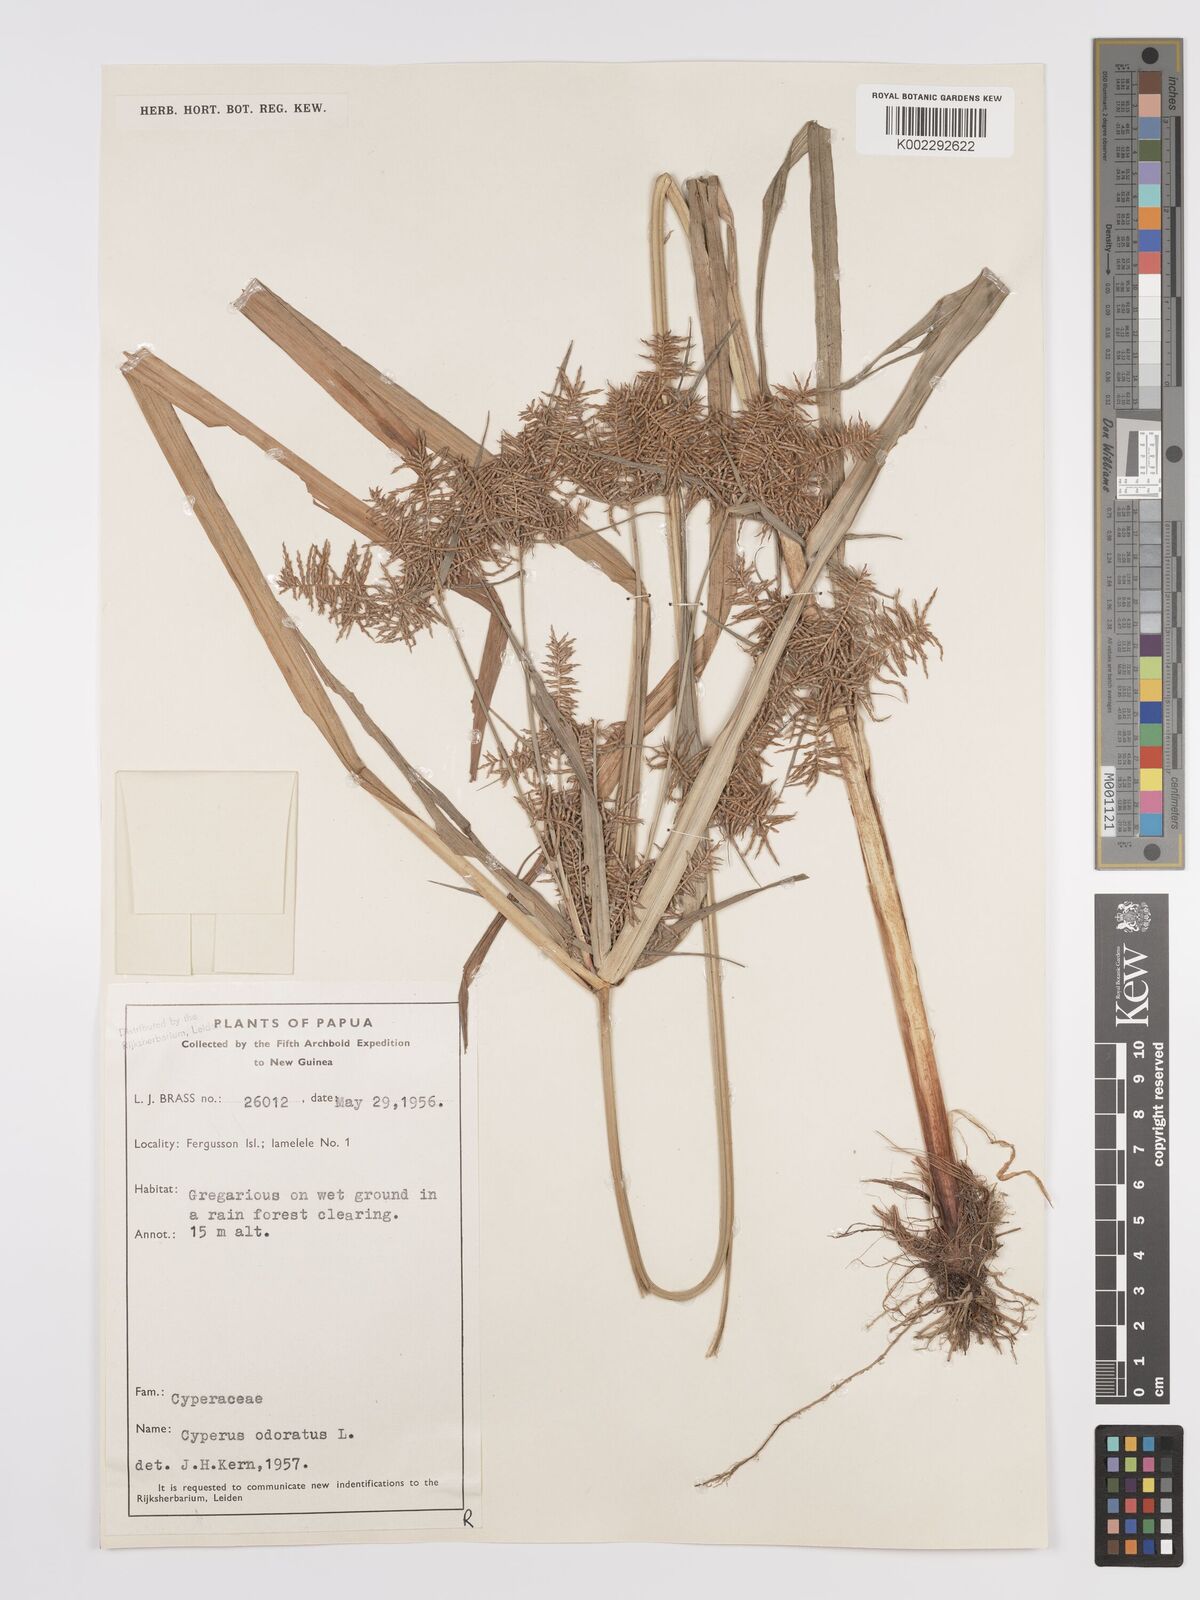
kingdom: Plantae
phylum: Tracheophyta
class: Liliopsida
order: Poales
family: Cyperaceae
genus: Cyperus
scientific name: Cyperus odoratus
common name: Fragrant flatsedge
